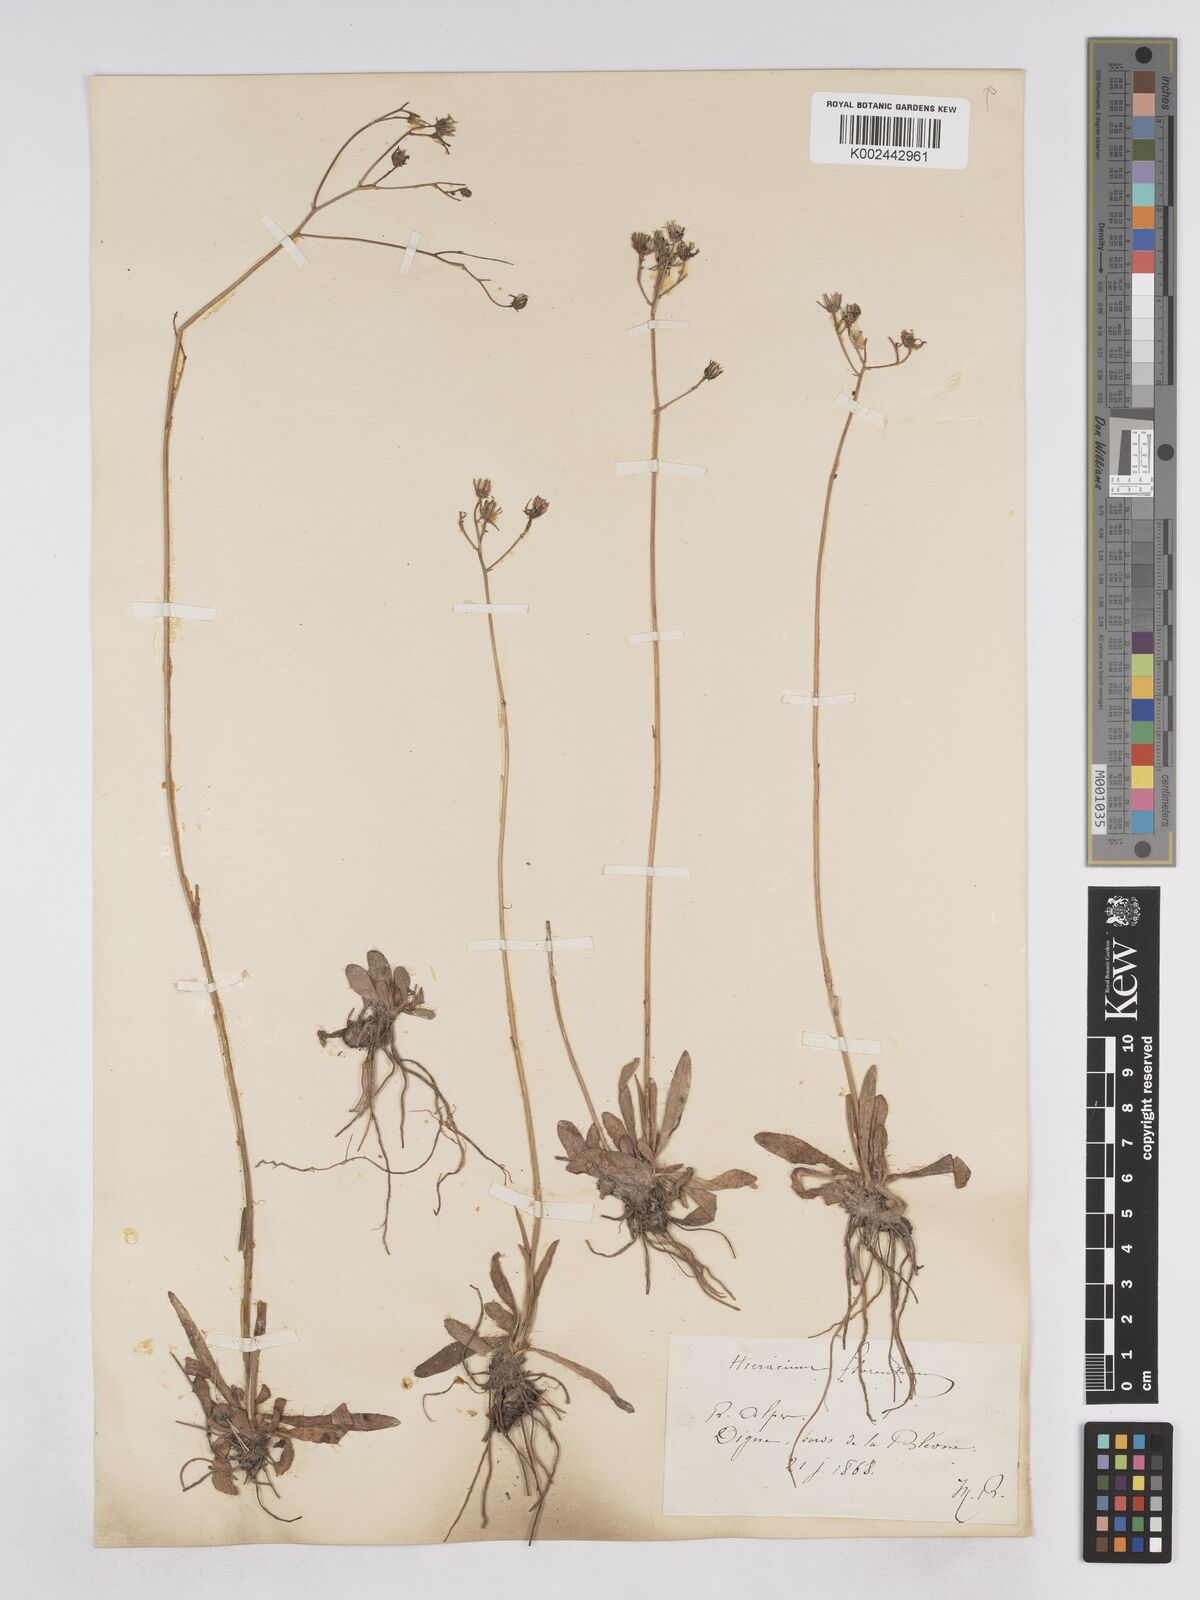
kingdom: Plantae
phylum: Tracheophyta
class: Magnoliopsida
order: Asterales
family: Asteraceae
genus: Pilosella
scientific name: Pilosella piloselloides
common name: Glaucous king-devil
